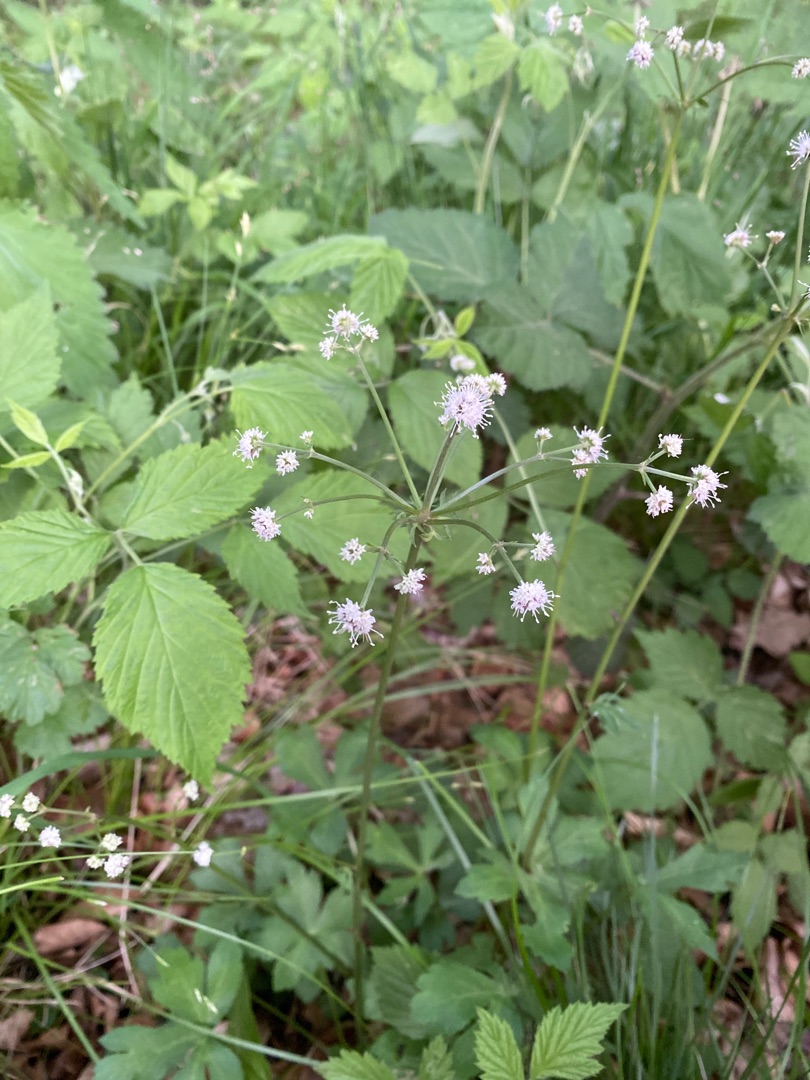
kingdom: Plantae
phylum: Tracheophyta
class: Magnoliopsida
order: Apiales
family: Apiaceae
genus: Sanicula
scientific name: Sanicula europaea
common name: Sanikel
